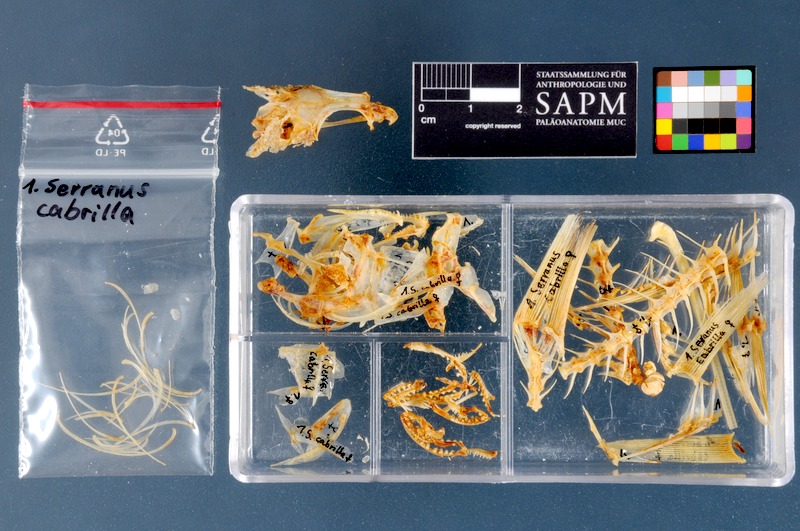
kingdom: Animalia
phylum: Chordata
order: Perciformes
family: Serranidae
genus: Serranus
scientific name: Serranus cabrilla
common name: Comber
